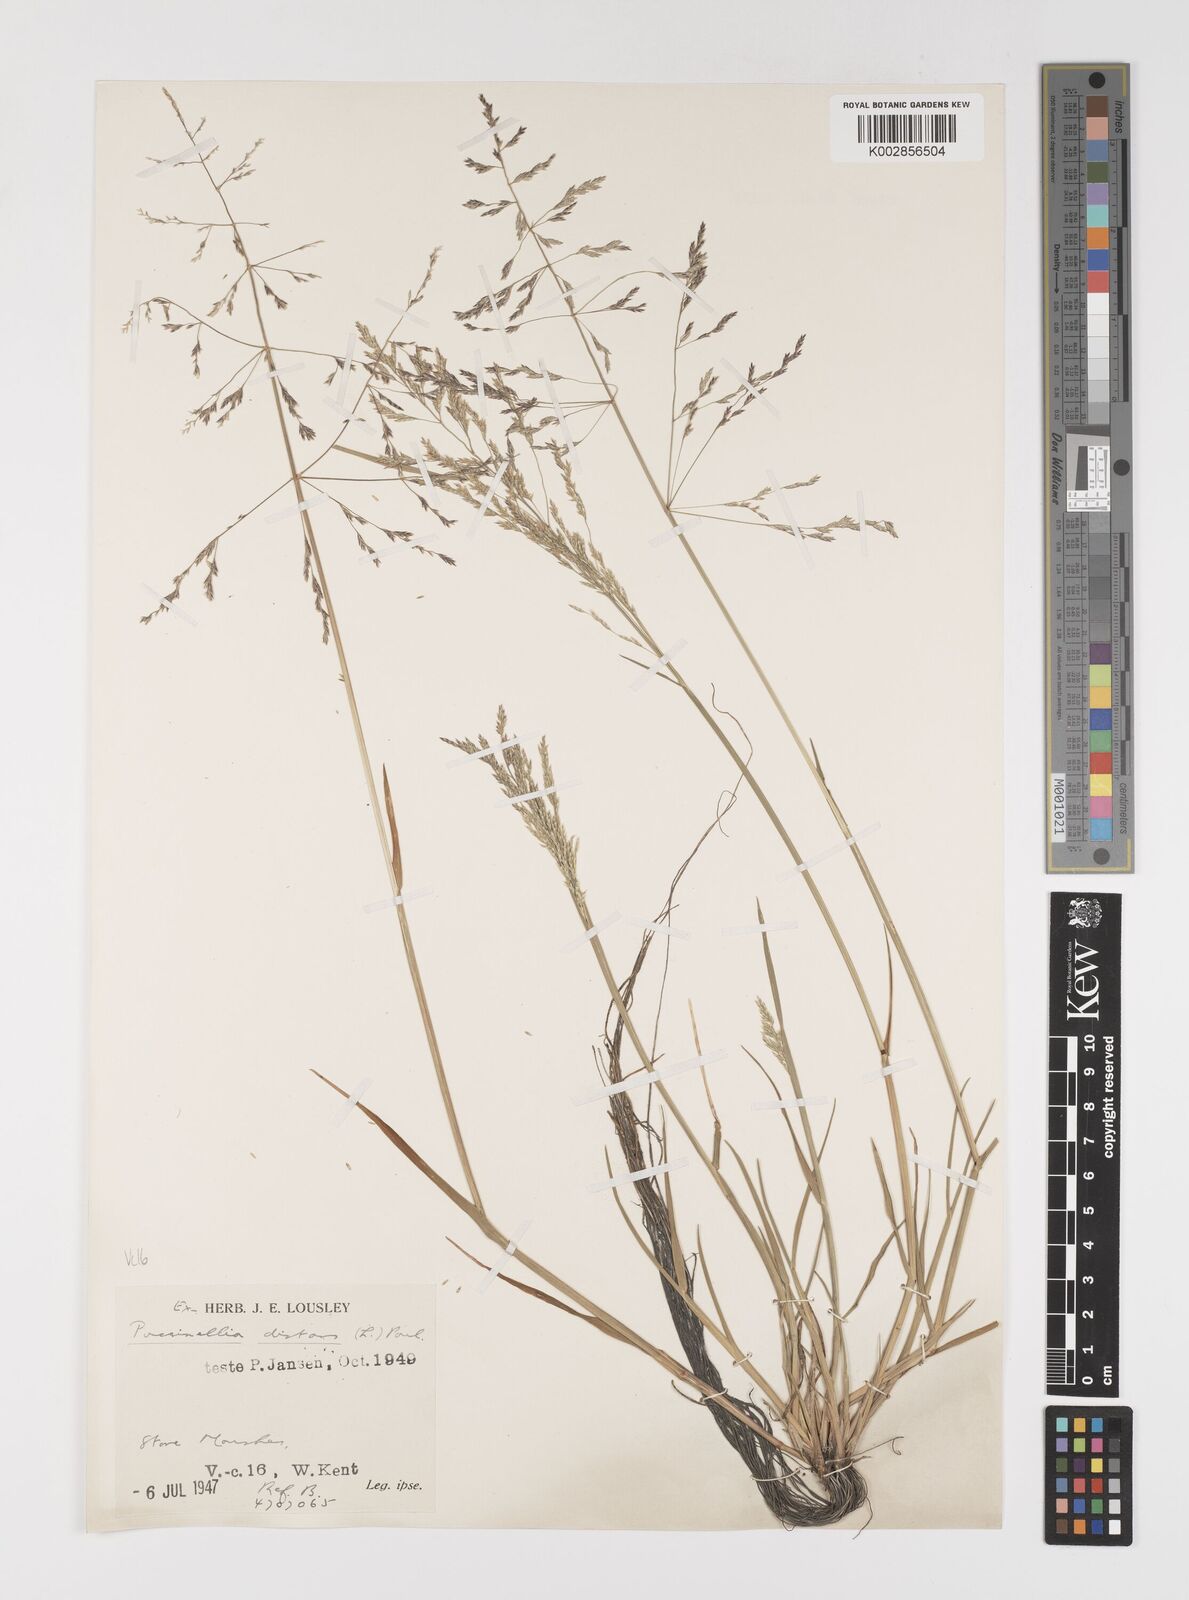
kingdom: Plantae
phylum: Tracheophyta
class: Liliopsida
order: Poales
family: Poaceae
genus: Puccinellia
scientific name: Puccinellia distans
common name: Weeping alkaligrass
